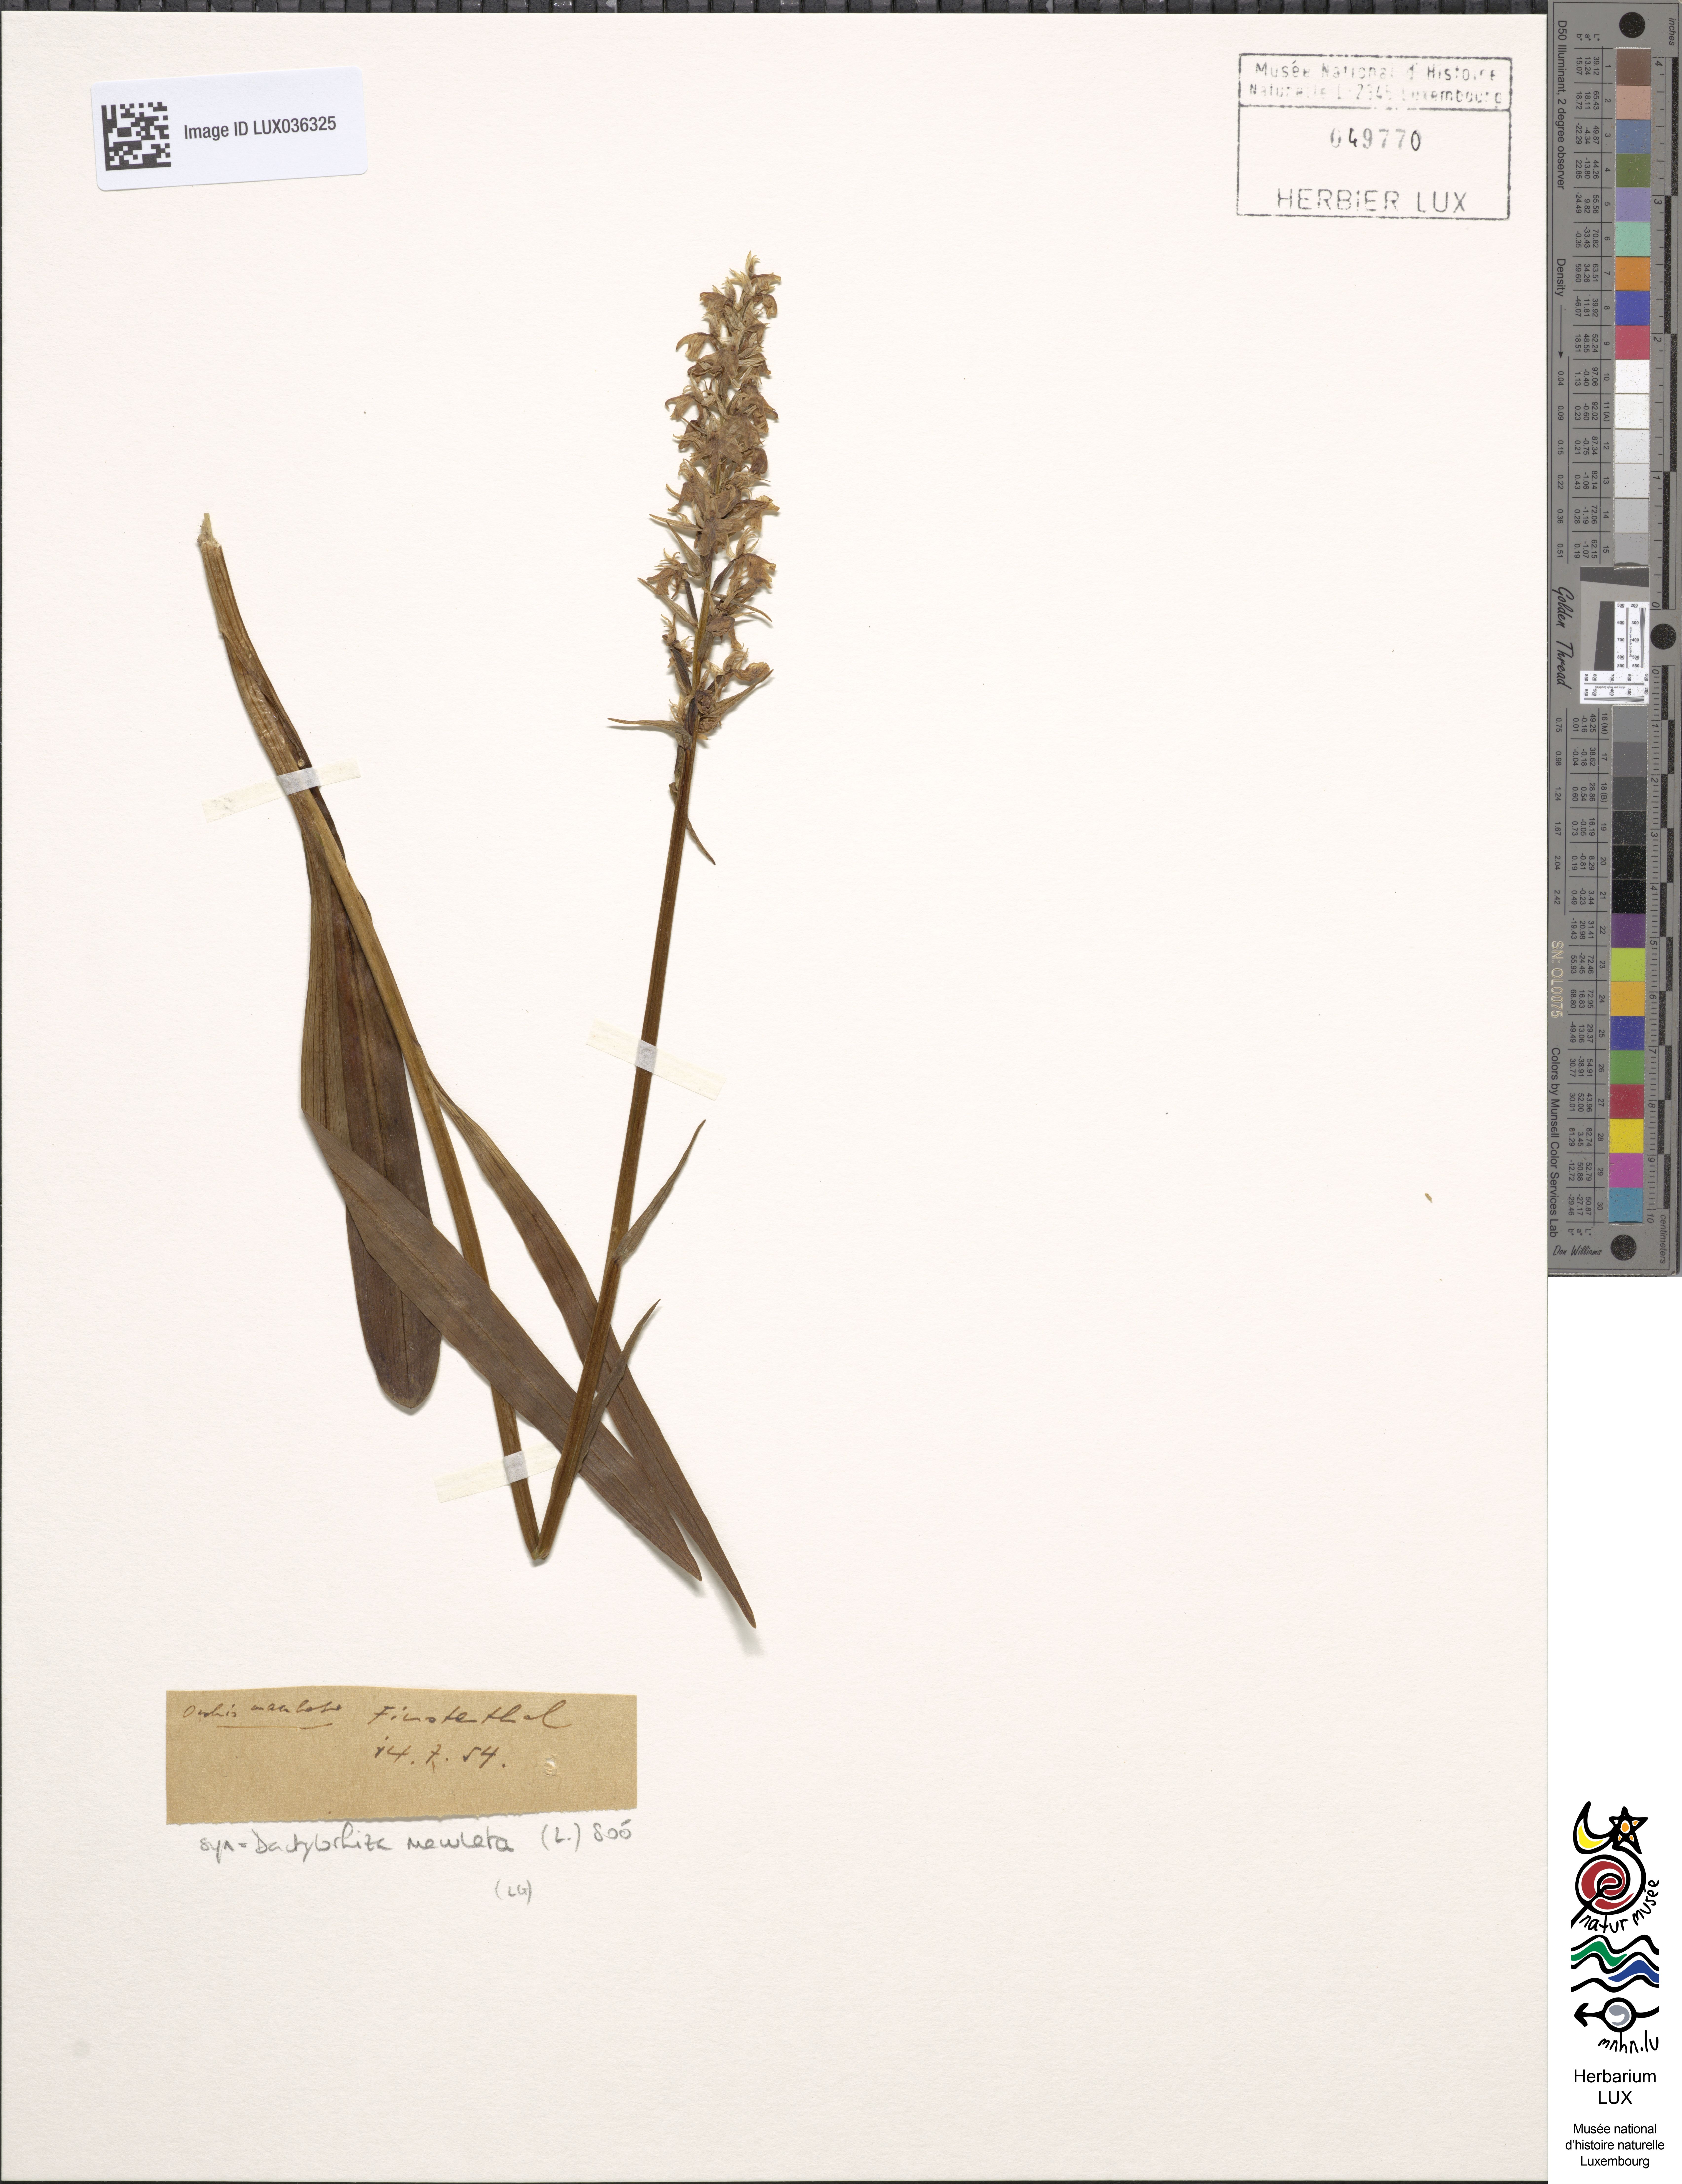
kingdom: Plantae
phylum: Tracheophyta
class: Liliopsida
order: Asparagales
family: Orchidaceae
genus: Dactylorhiza
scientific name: Dactylorhiza maculata
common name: Heath spotted-orchid
